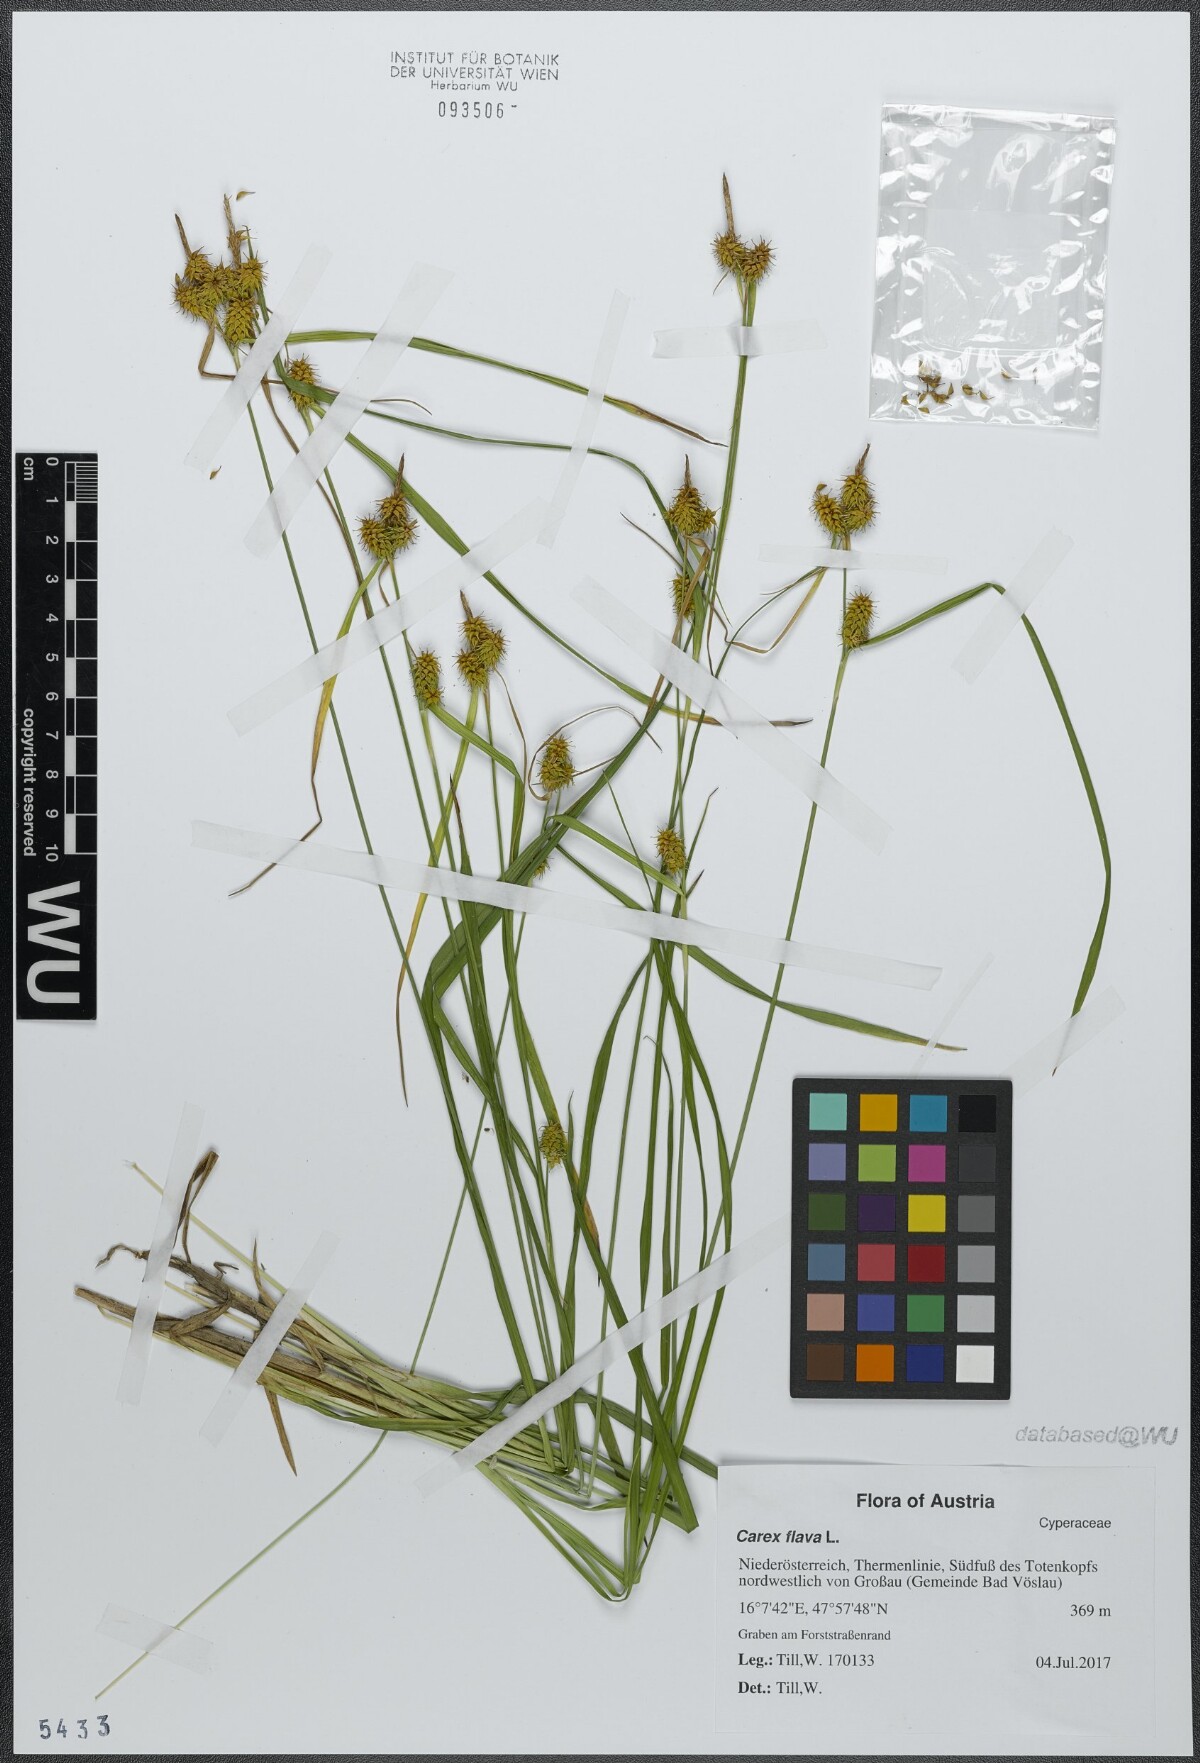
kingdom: Plantae
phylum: Tracheophyta
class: Liliopsida
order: Poales
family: Cyperaceae
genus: Carex
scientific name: Carex flava
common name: Large yellow-sedge
